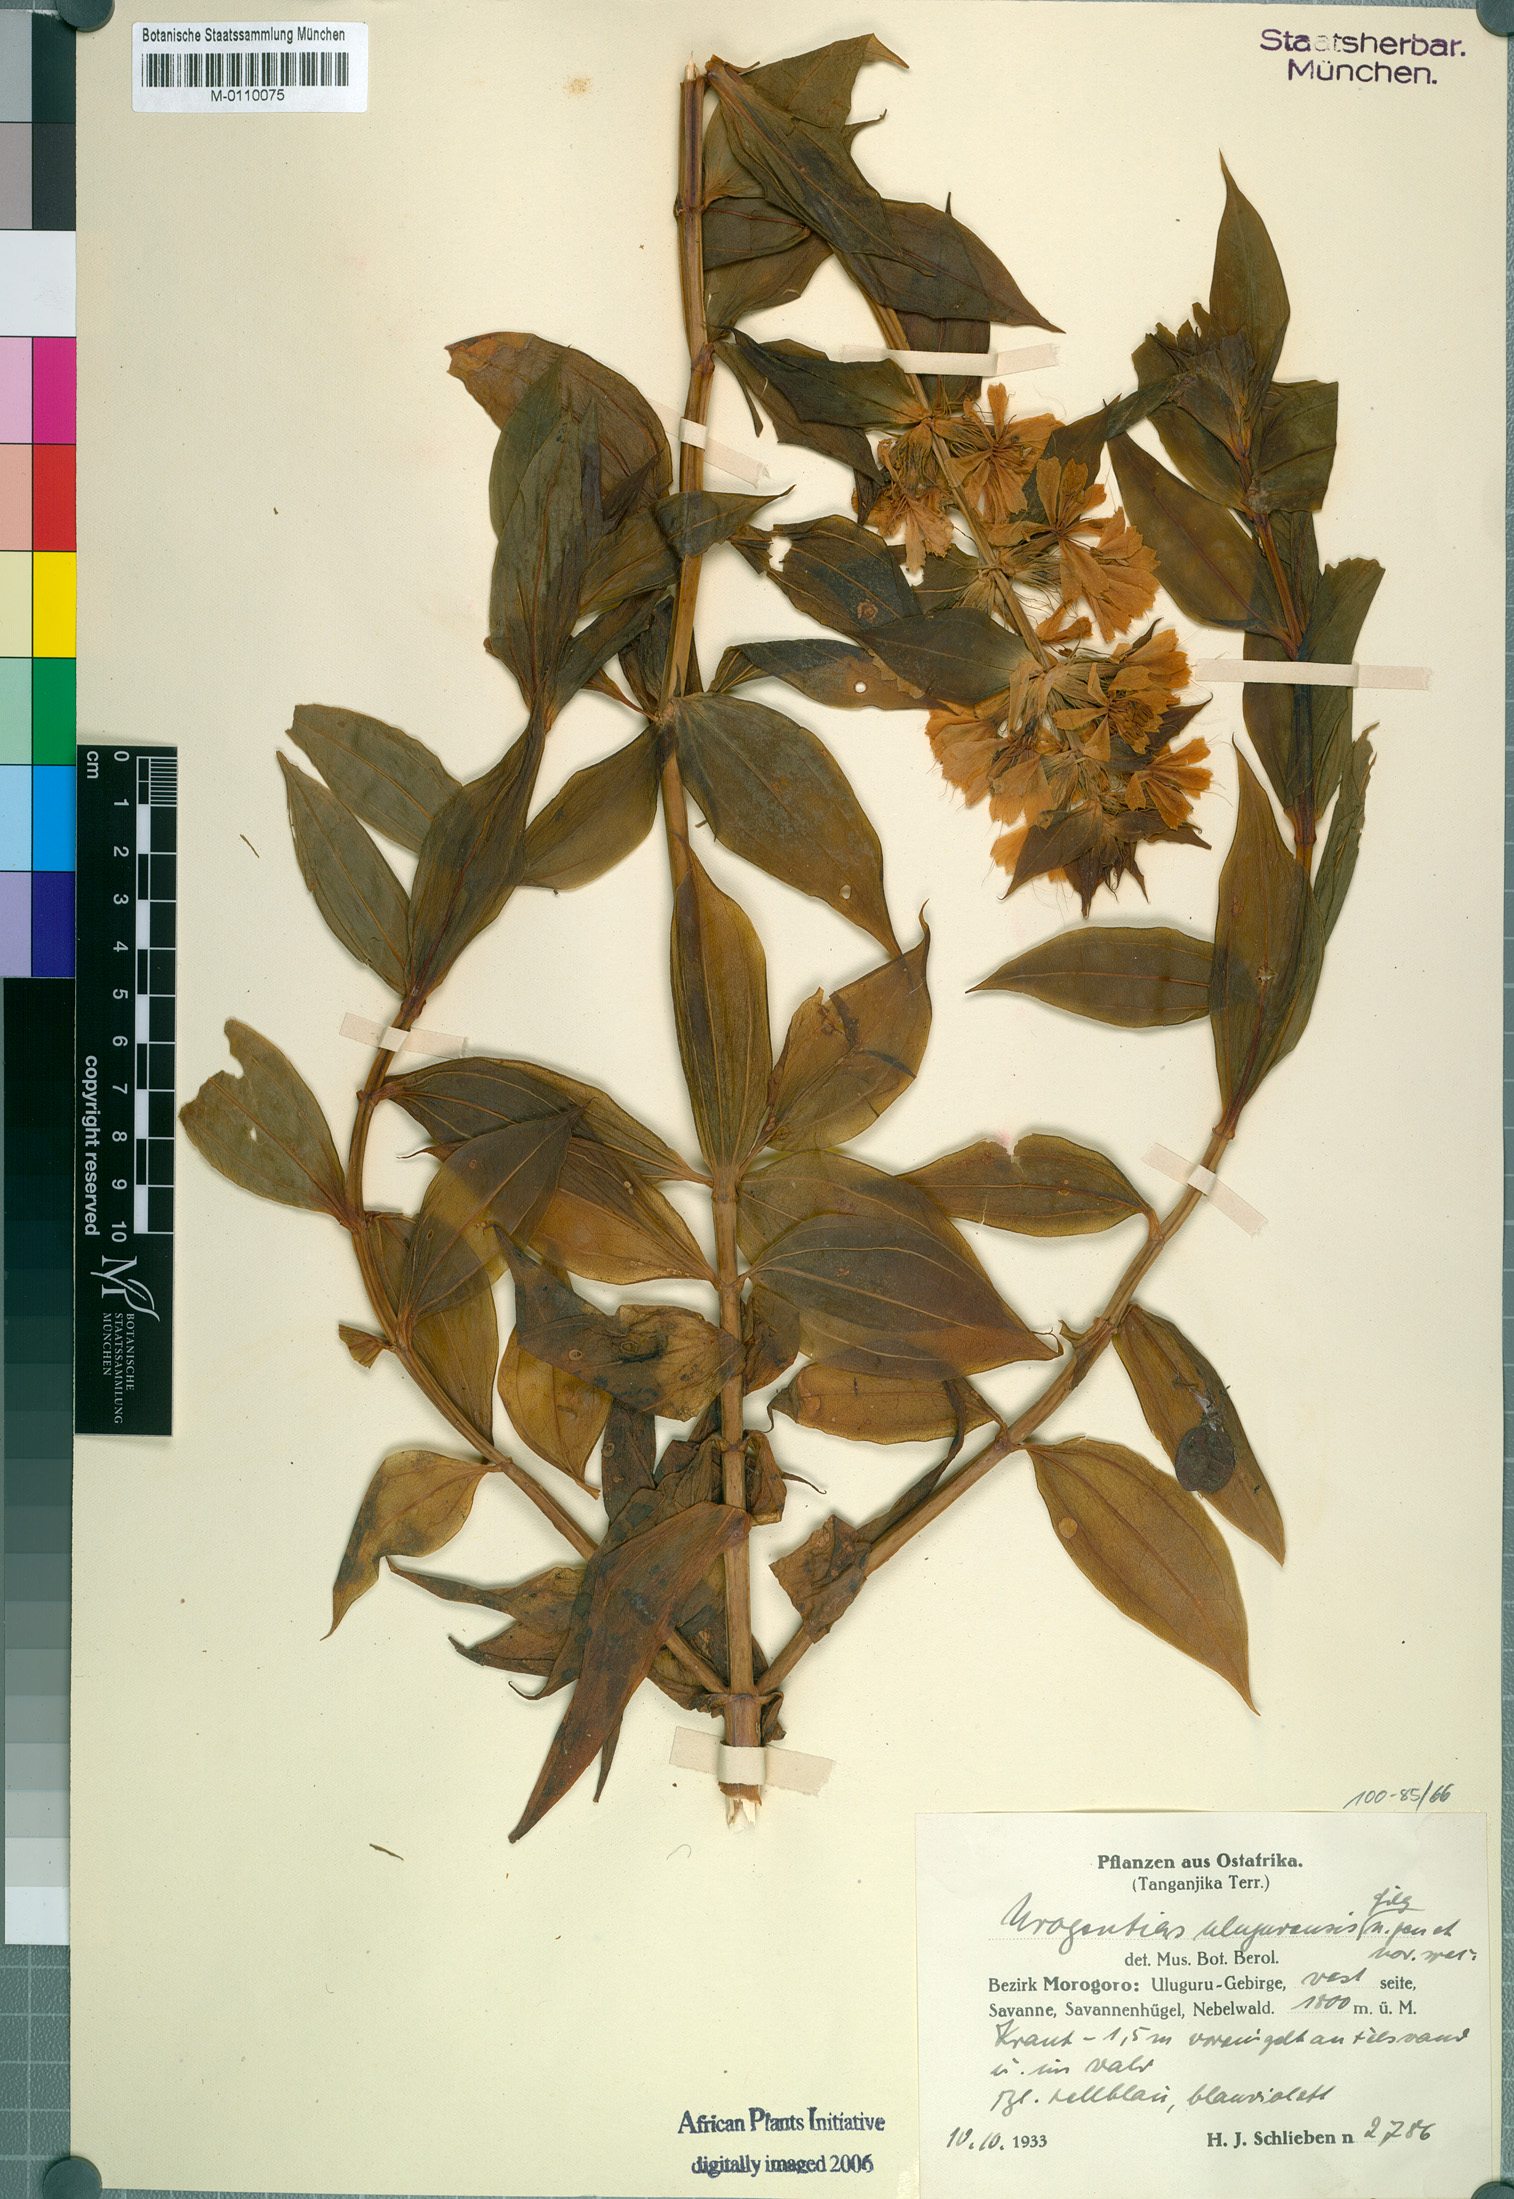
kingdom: Plantae
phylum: Tracheophyta
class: Magnoliopsida
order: Gentianales
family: Gentianaceae
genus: Urogentias
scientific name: Urogentias ulugurensis
